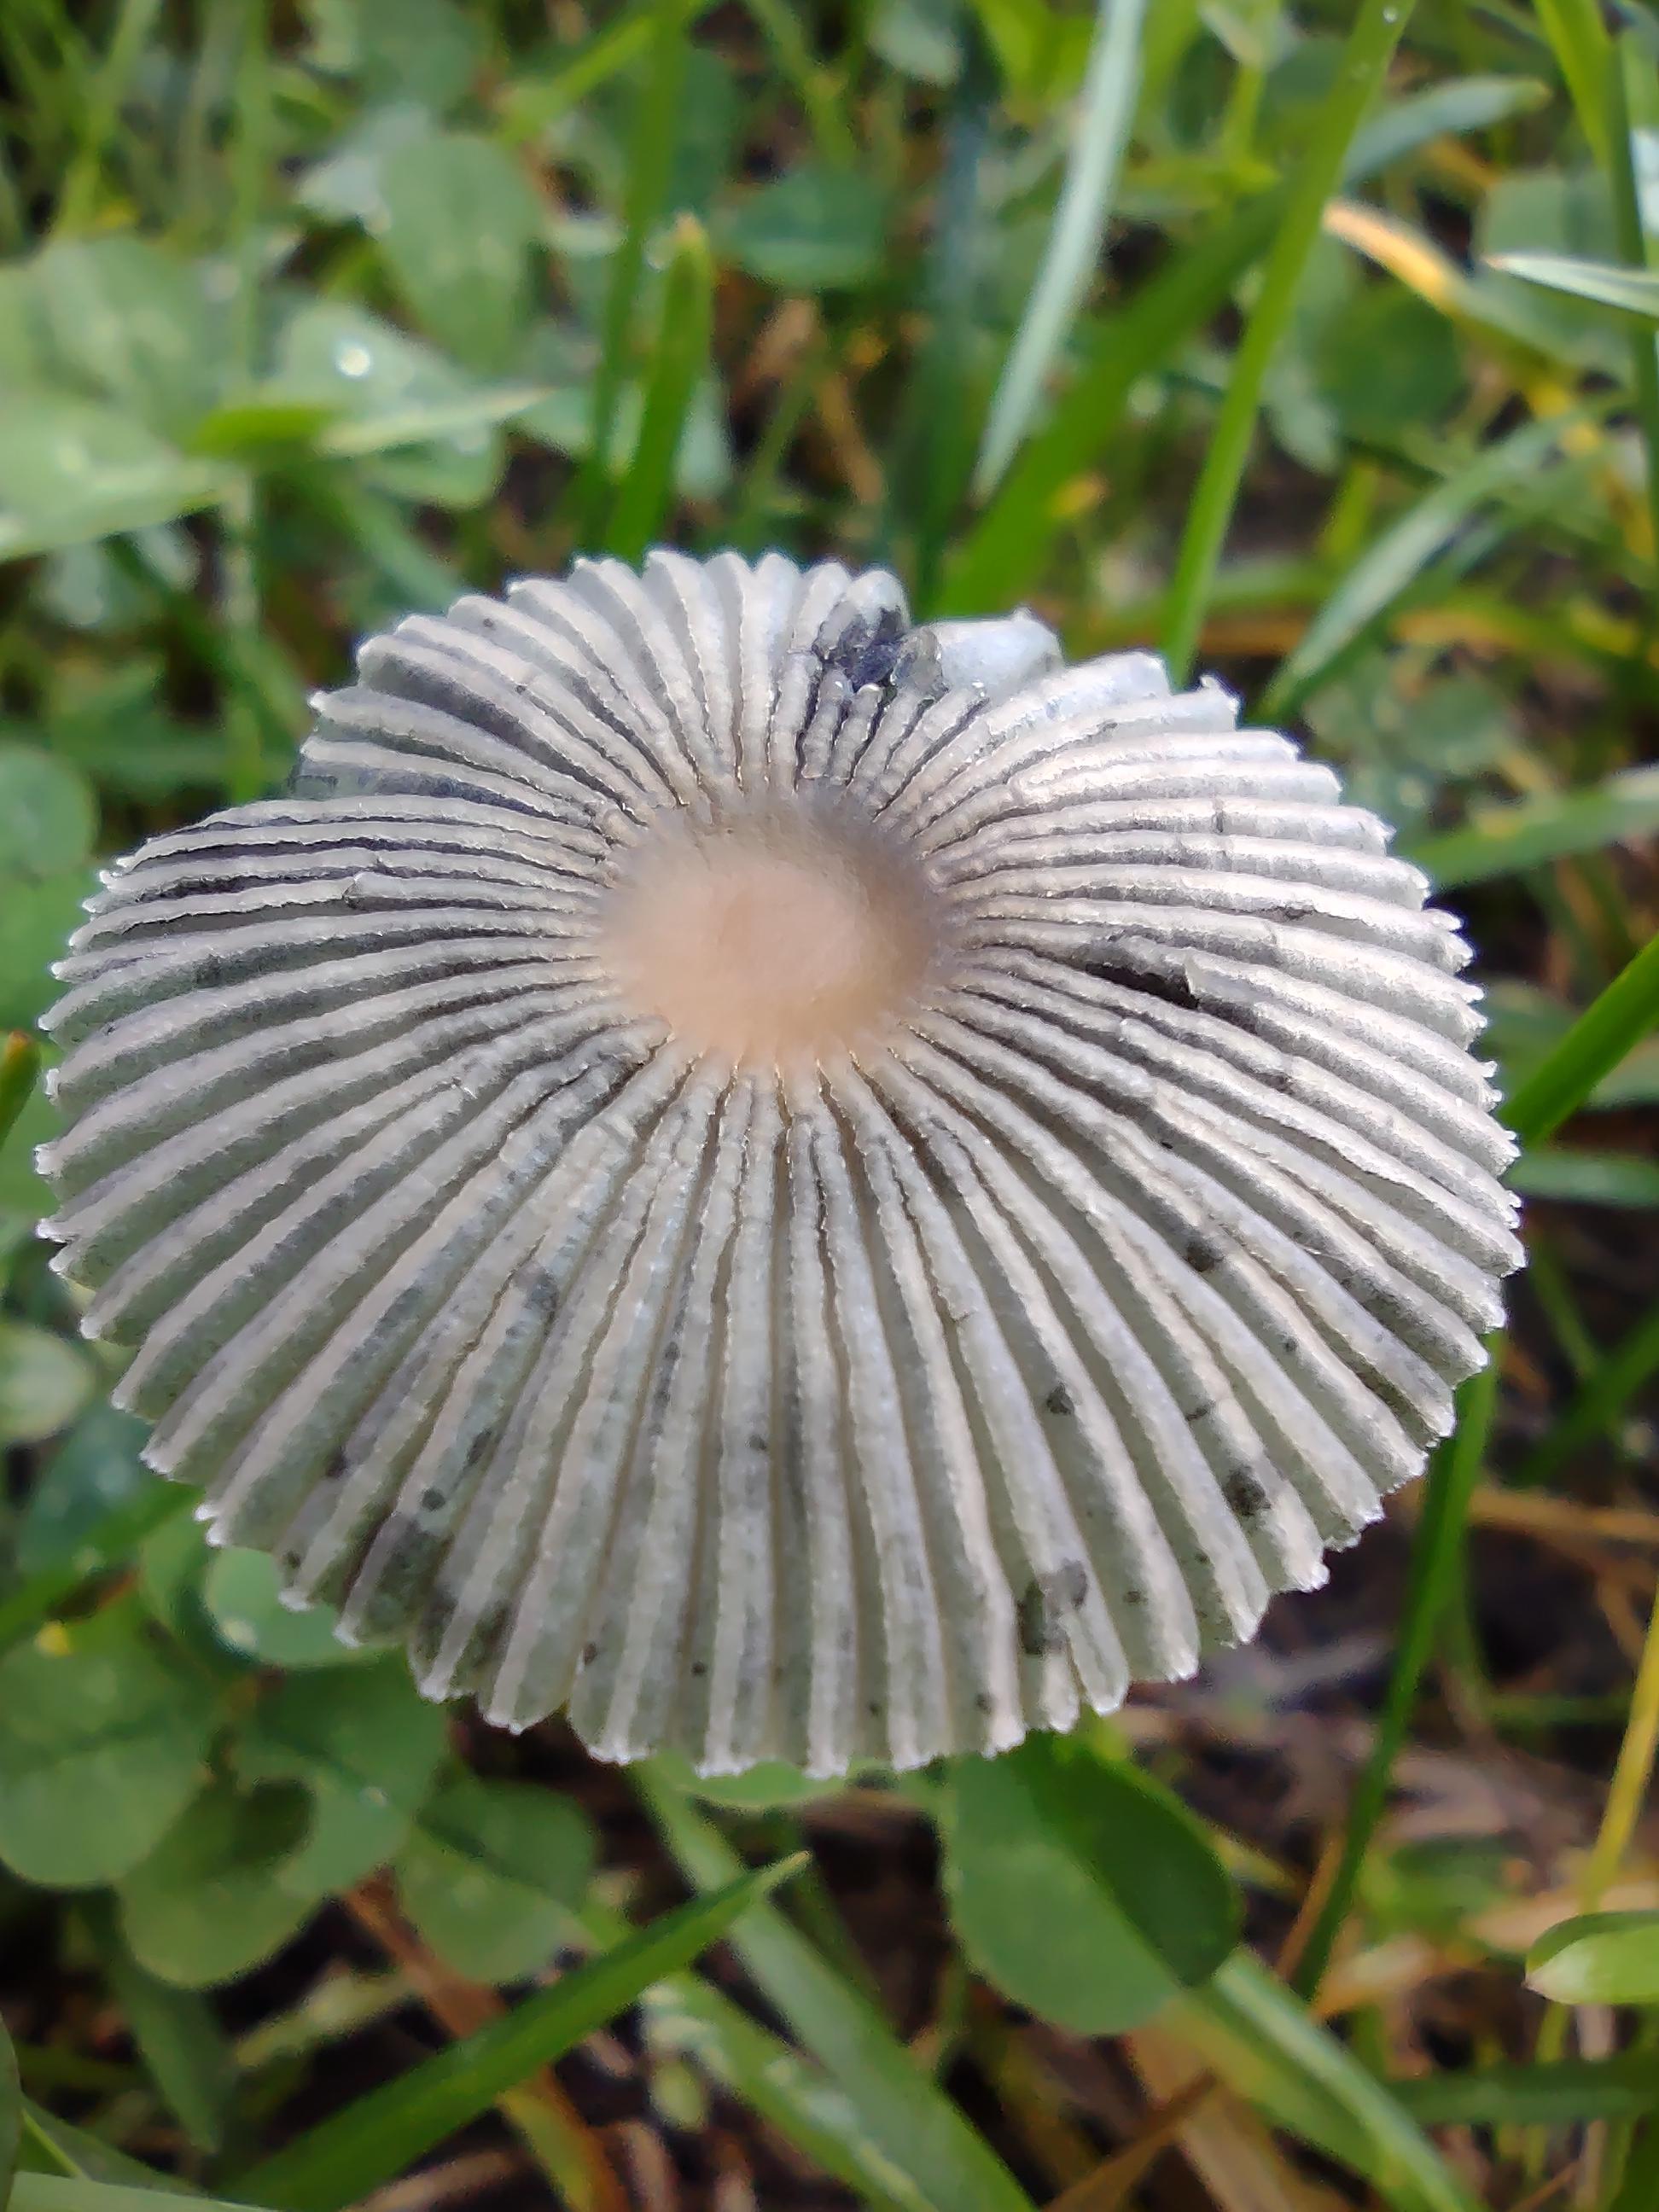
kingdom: Fungi
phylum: Basidiomycota
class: Agaricomycetes
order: Agaricales
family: Psathyrellaceae
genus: Parasola
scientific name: Parasola
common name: hjulhat
